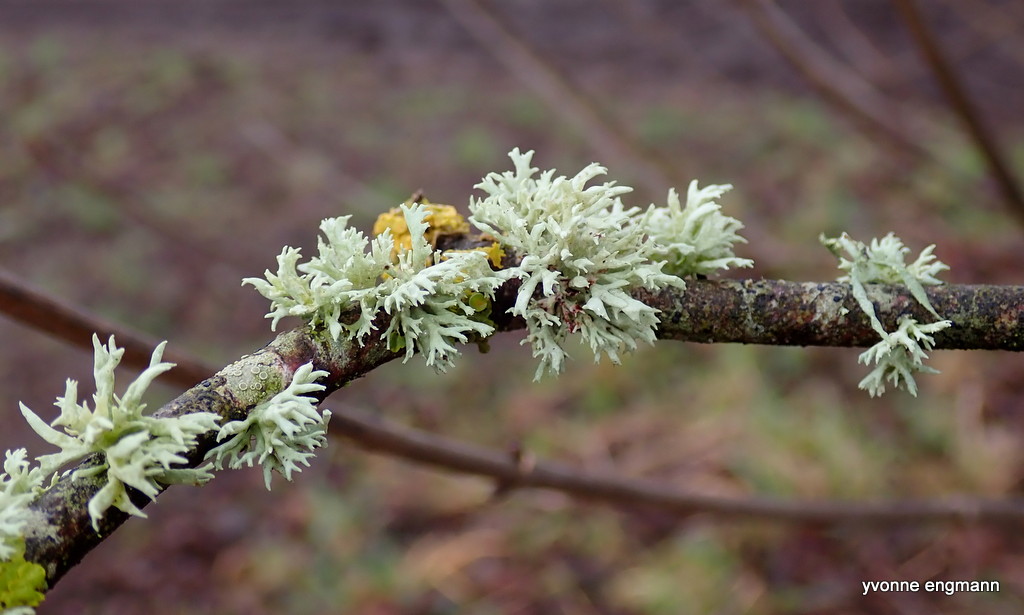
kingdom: Fungi
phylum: Ascomycota
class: Lecanoromycetes
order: Lecanorales
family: Ramalinaceae
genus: Ramalina
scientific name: Ramalina fastigiata
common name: tue-grenlav
